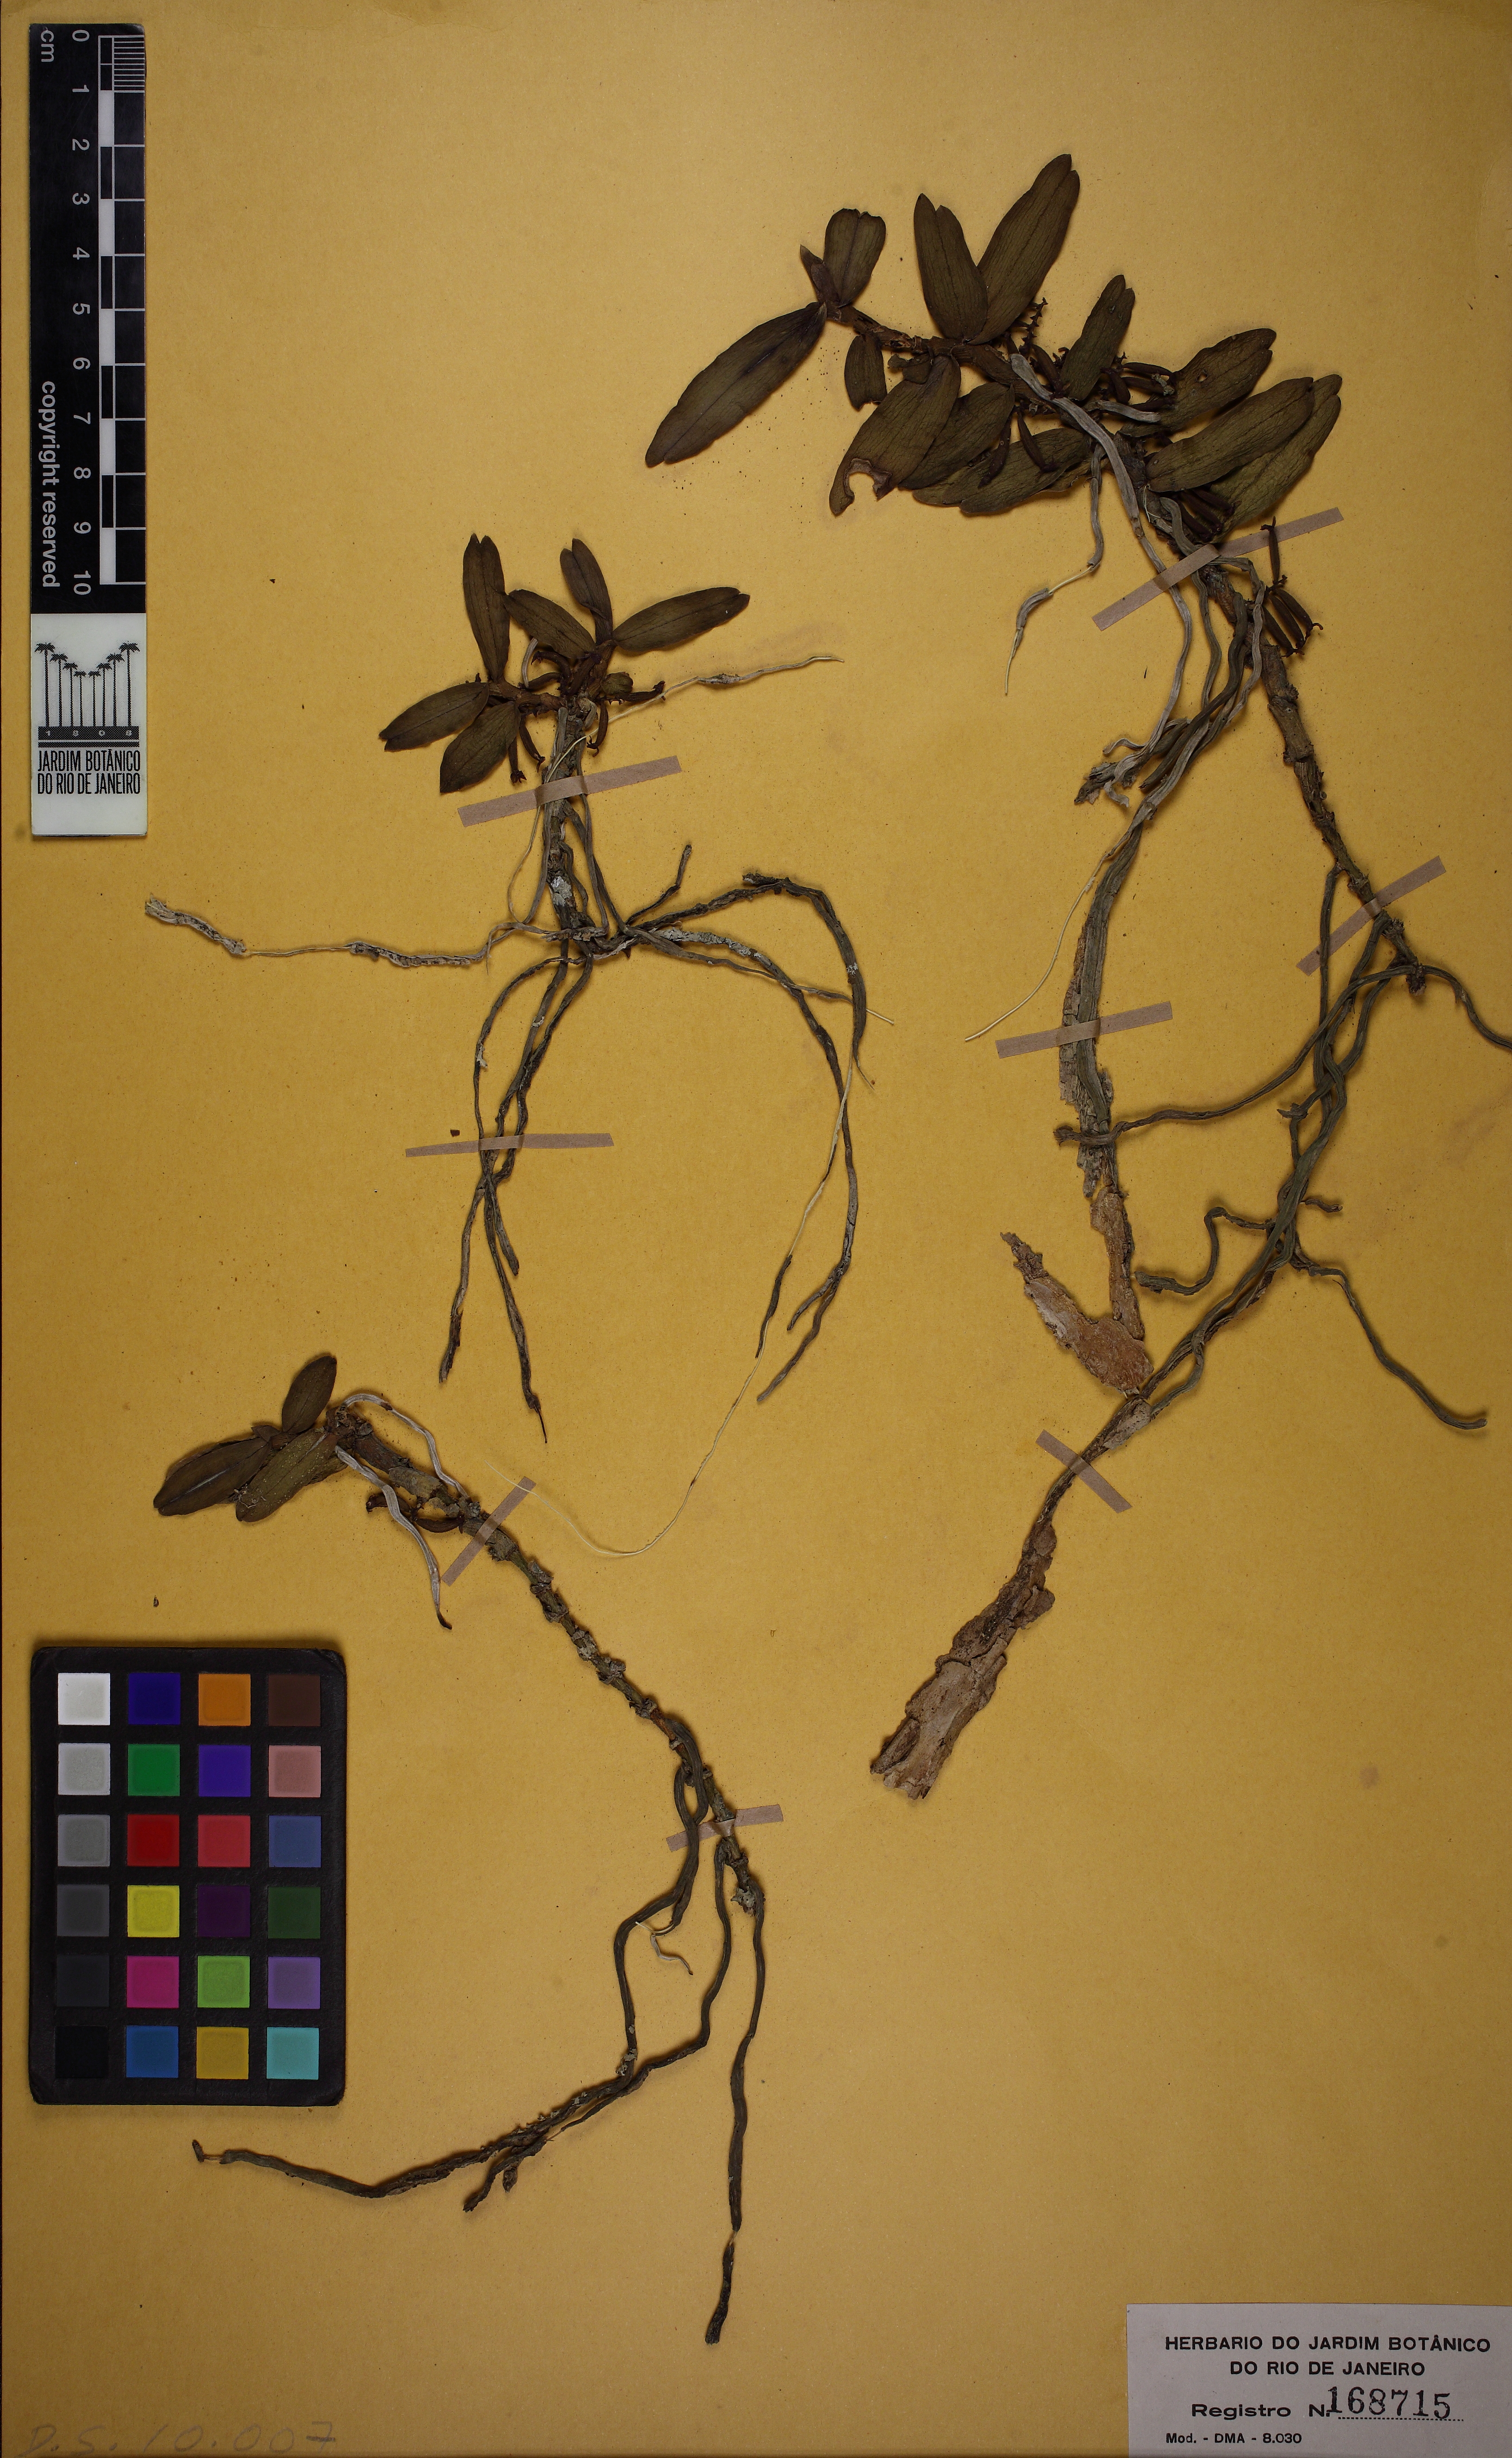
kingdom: Plantae
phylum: Tracheophyta
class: Liliopsida
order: Asparagales
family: Orchidaceae
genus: Campylocentrum
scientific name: Campylocentrum crassirhizum
